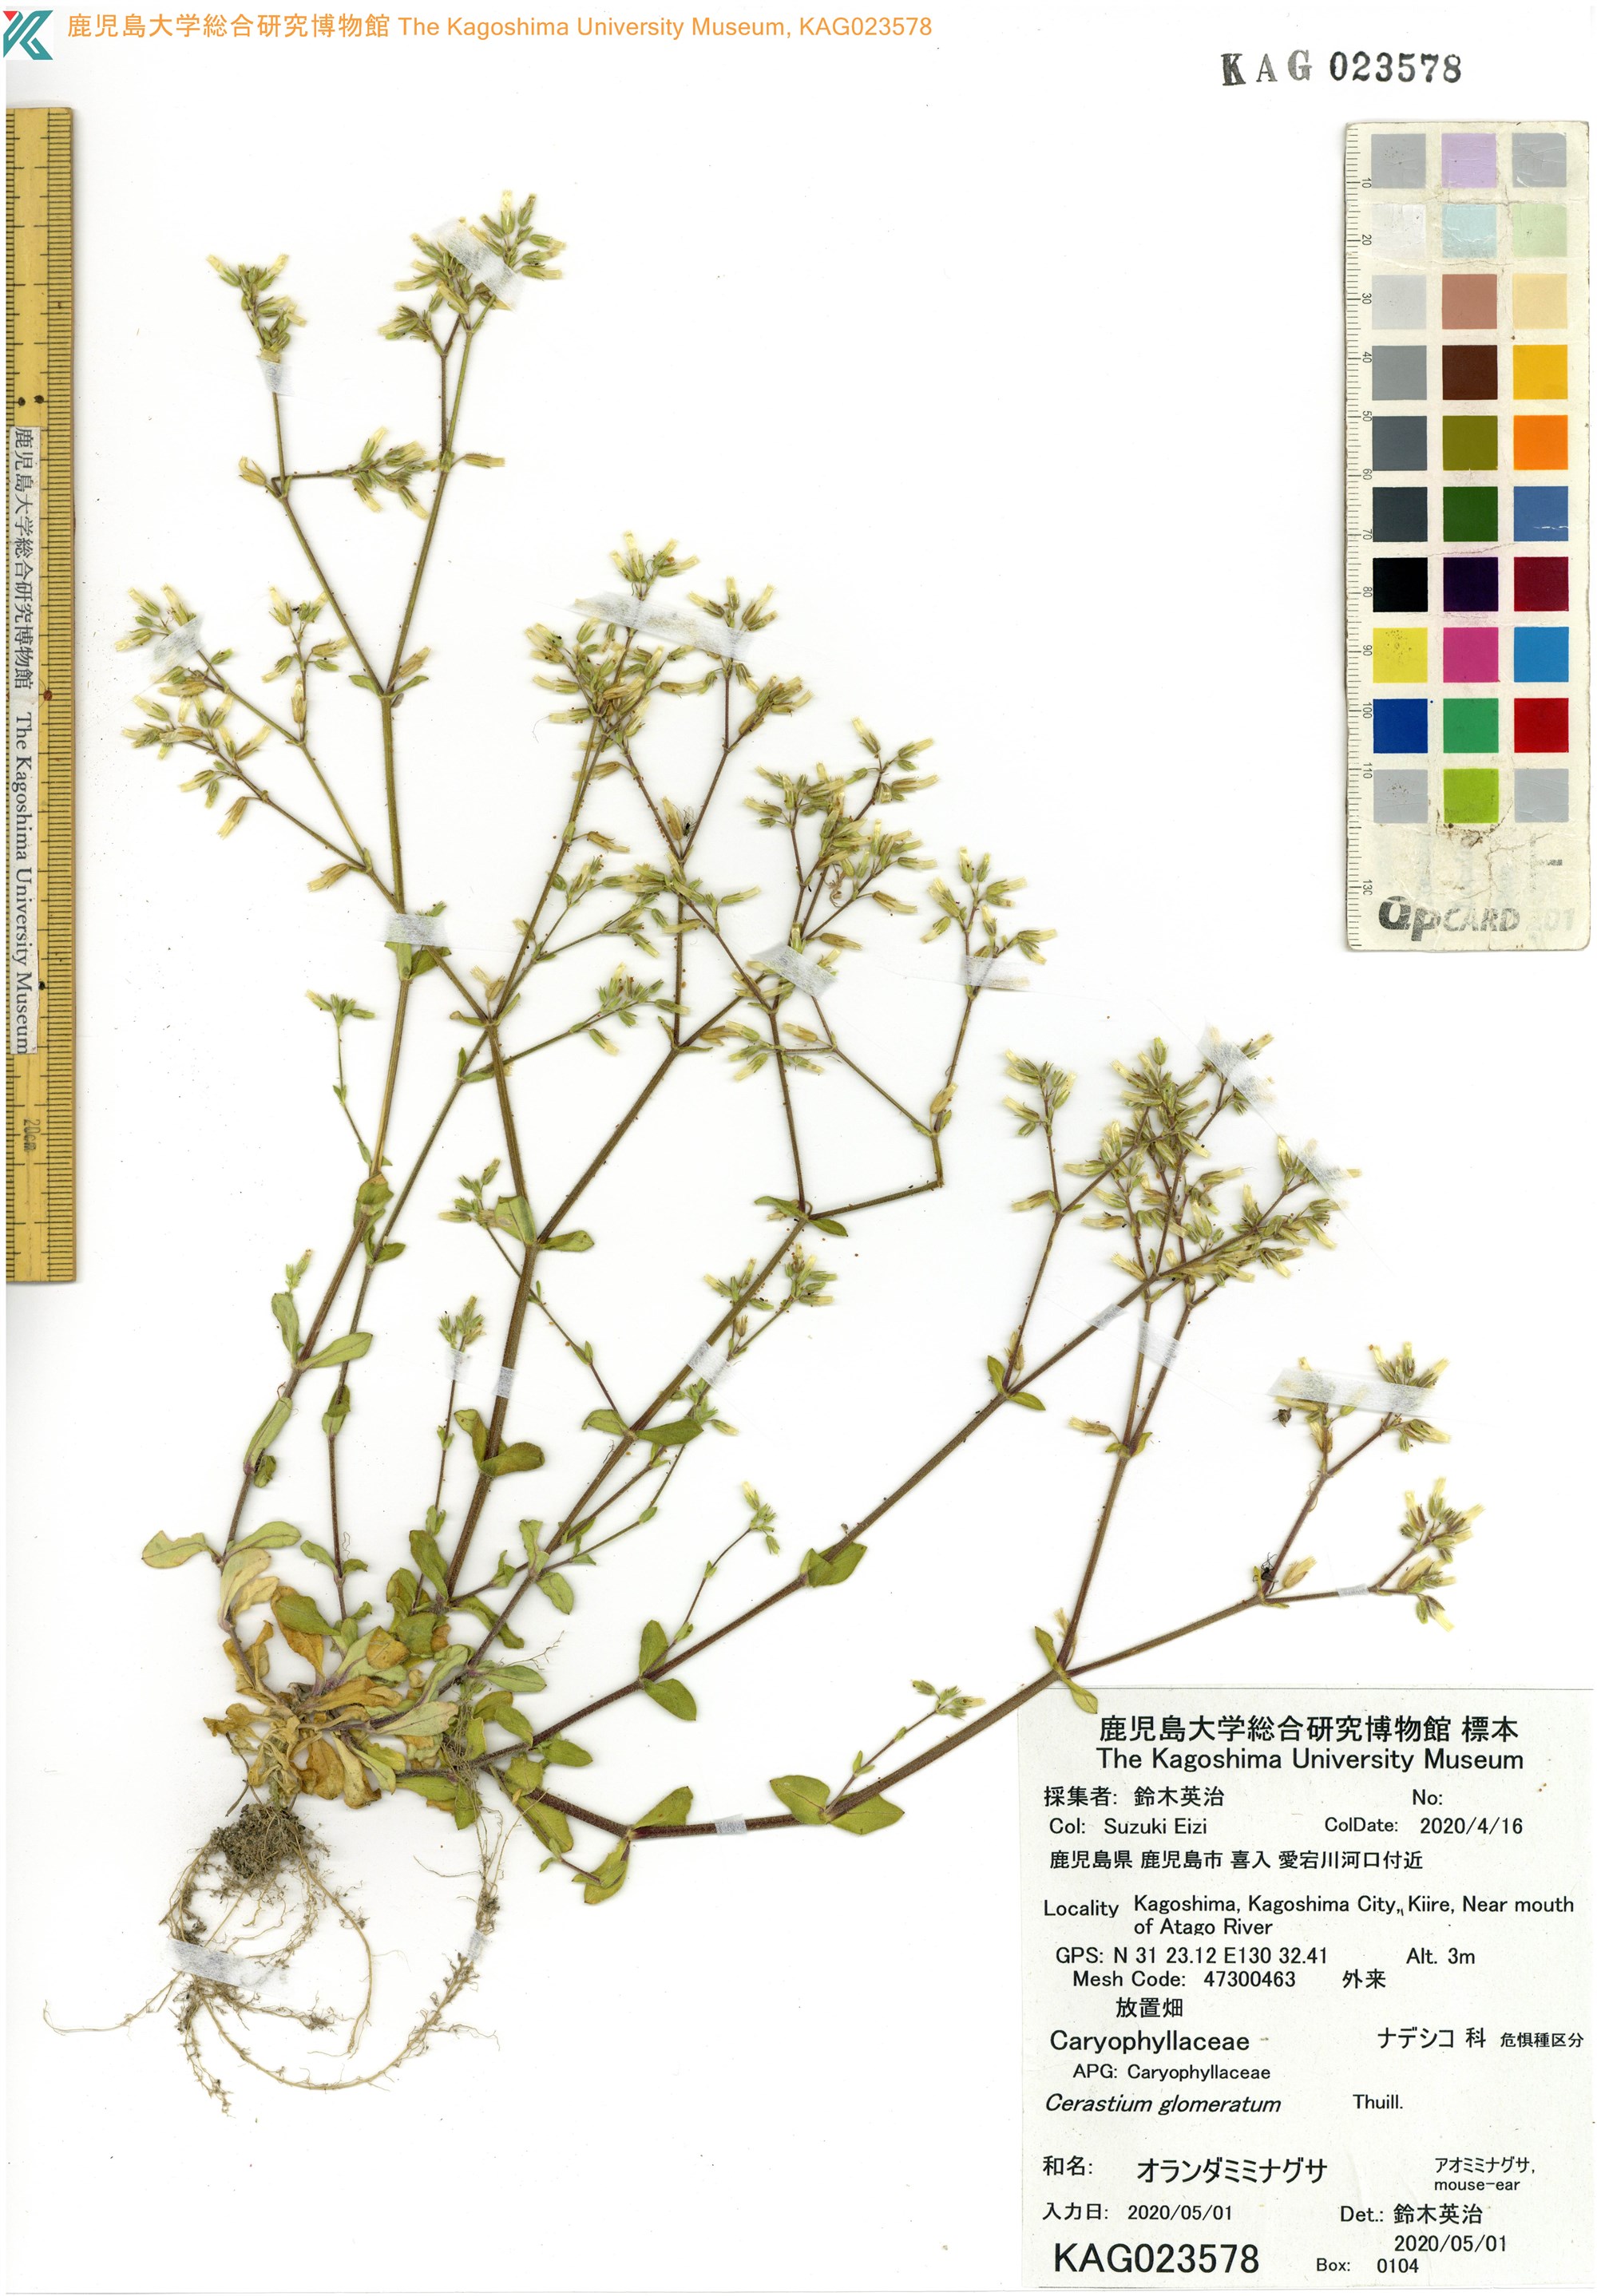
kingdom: Plantae
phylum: Tracheophyta
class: Magnoliopsida
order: Caryophyllales
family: Caryophyllaceae
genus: Cerastium
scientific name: Cerastium glomeratum
